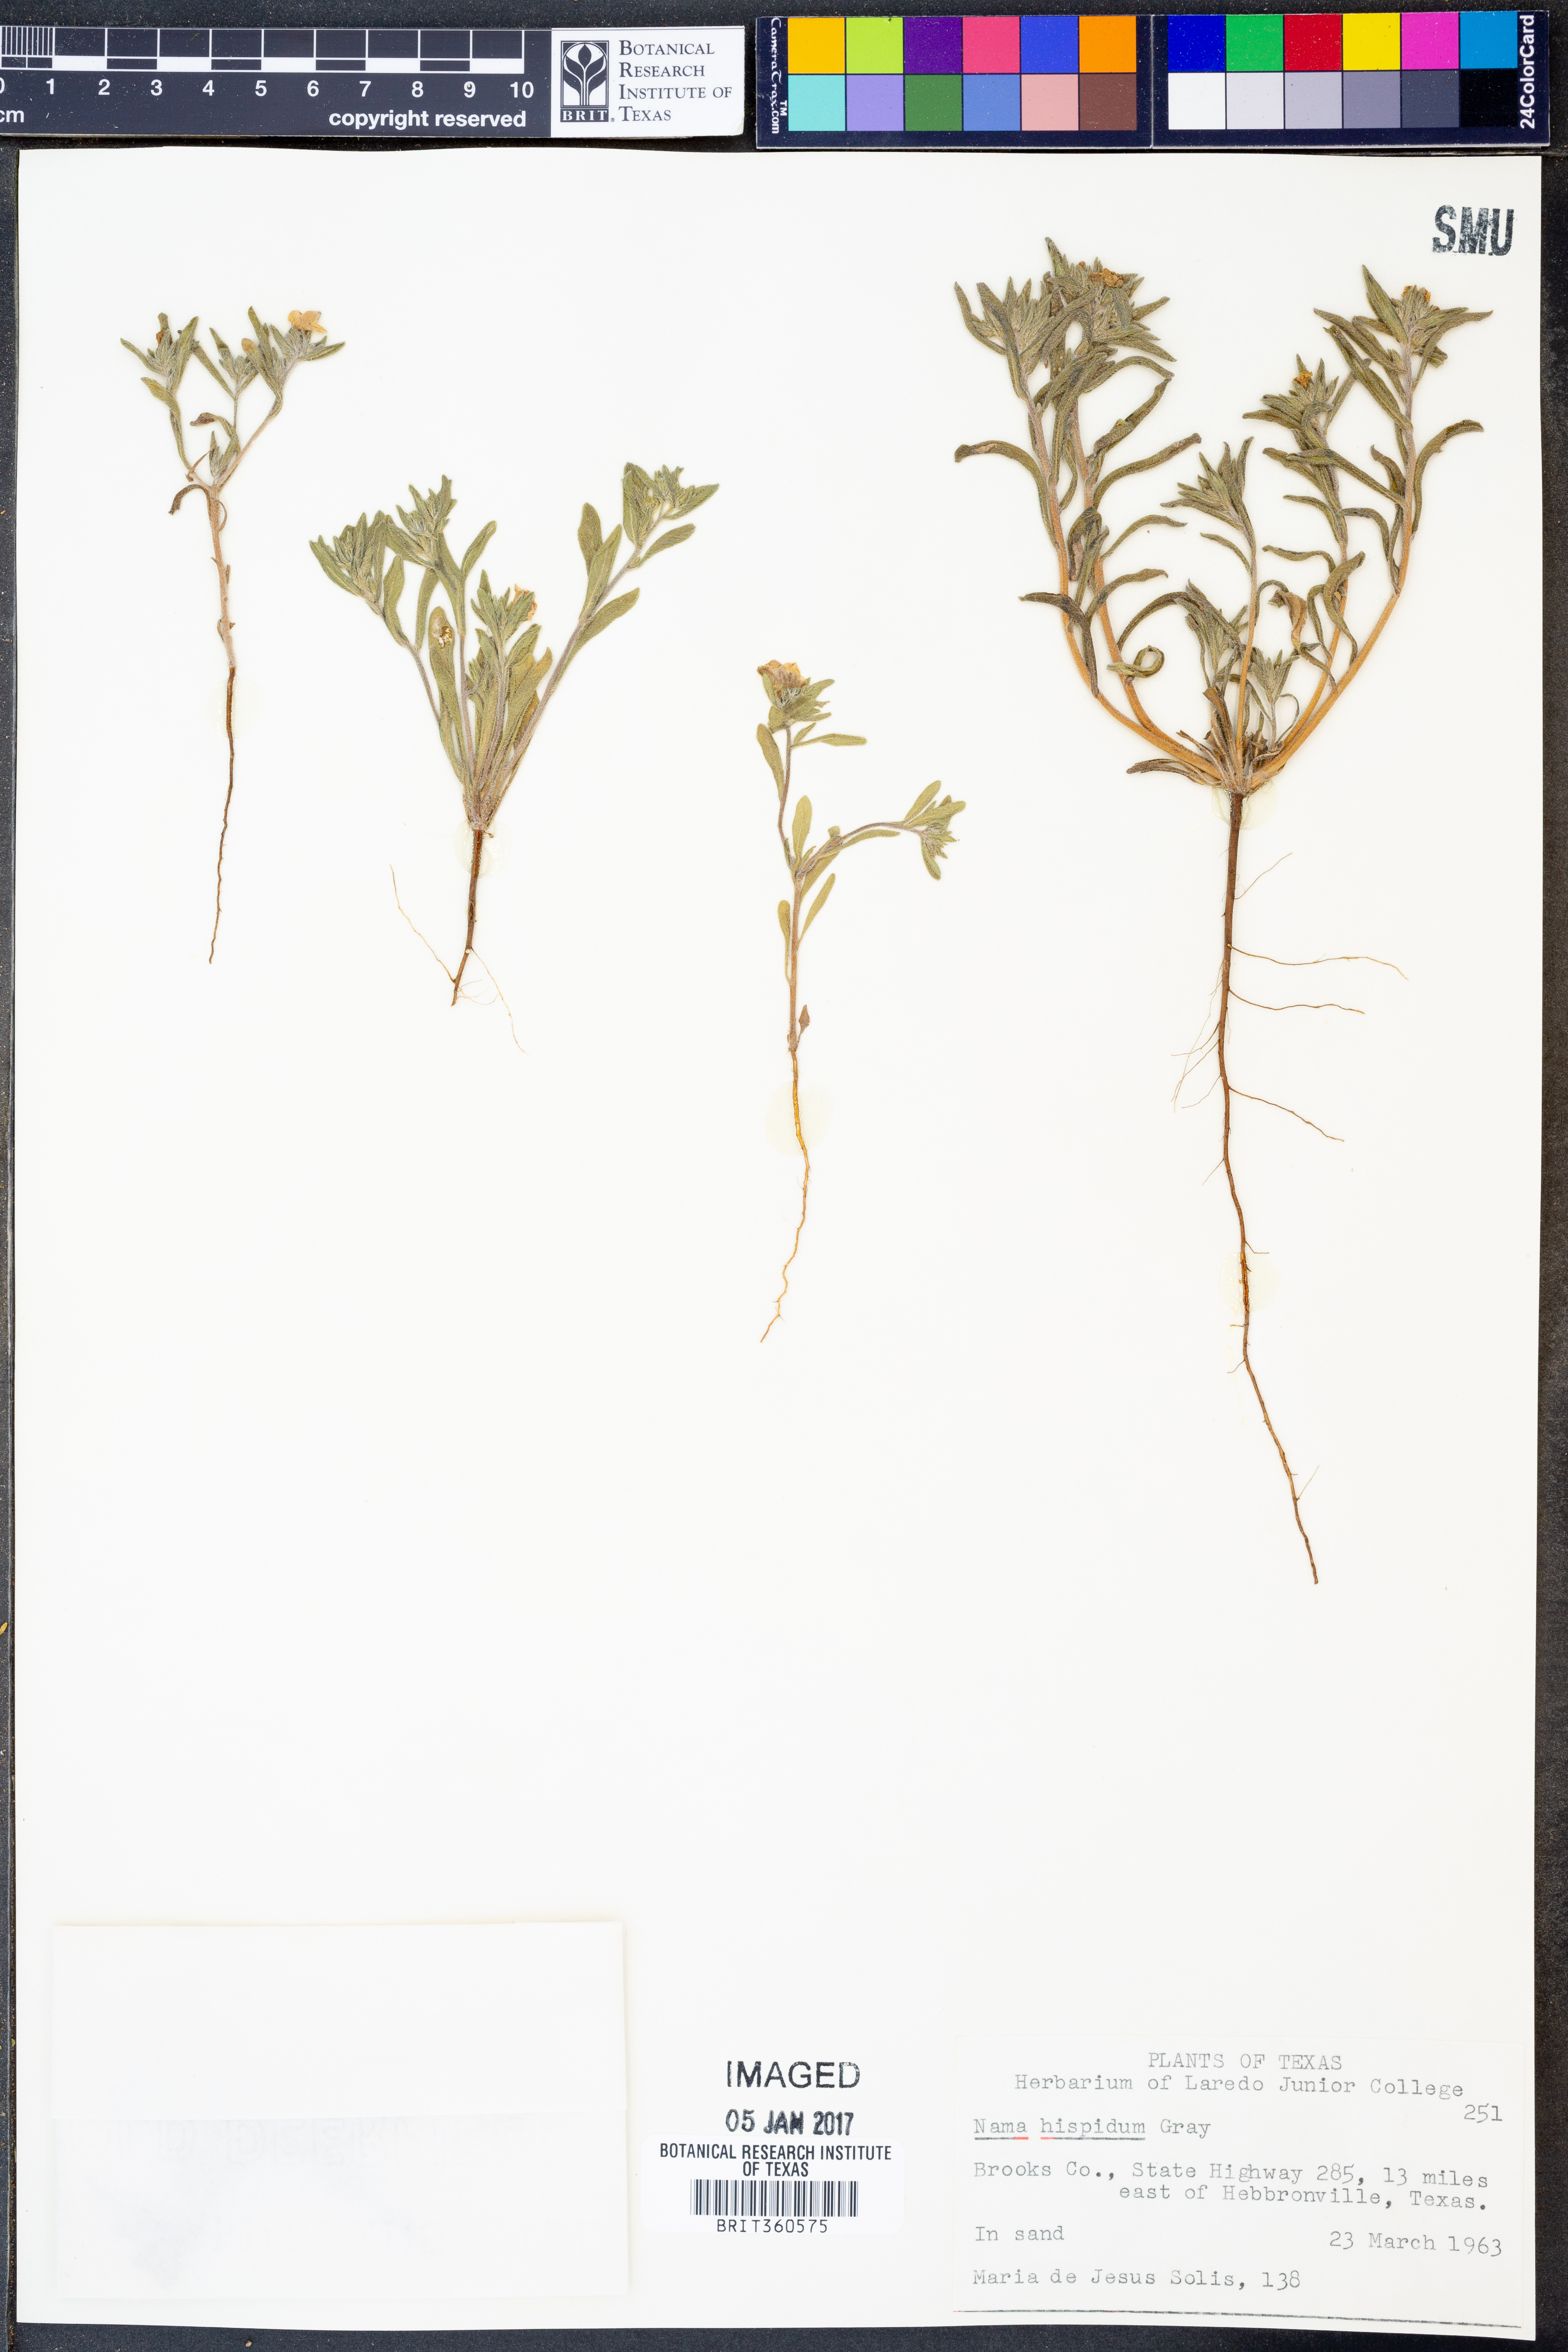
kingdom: Plantae
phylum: Tracheophyta
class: Magnoliopsida
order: Boraginales
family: Namaceae
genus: Nama
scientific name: Nama hispida
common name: Bristly nama
